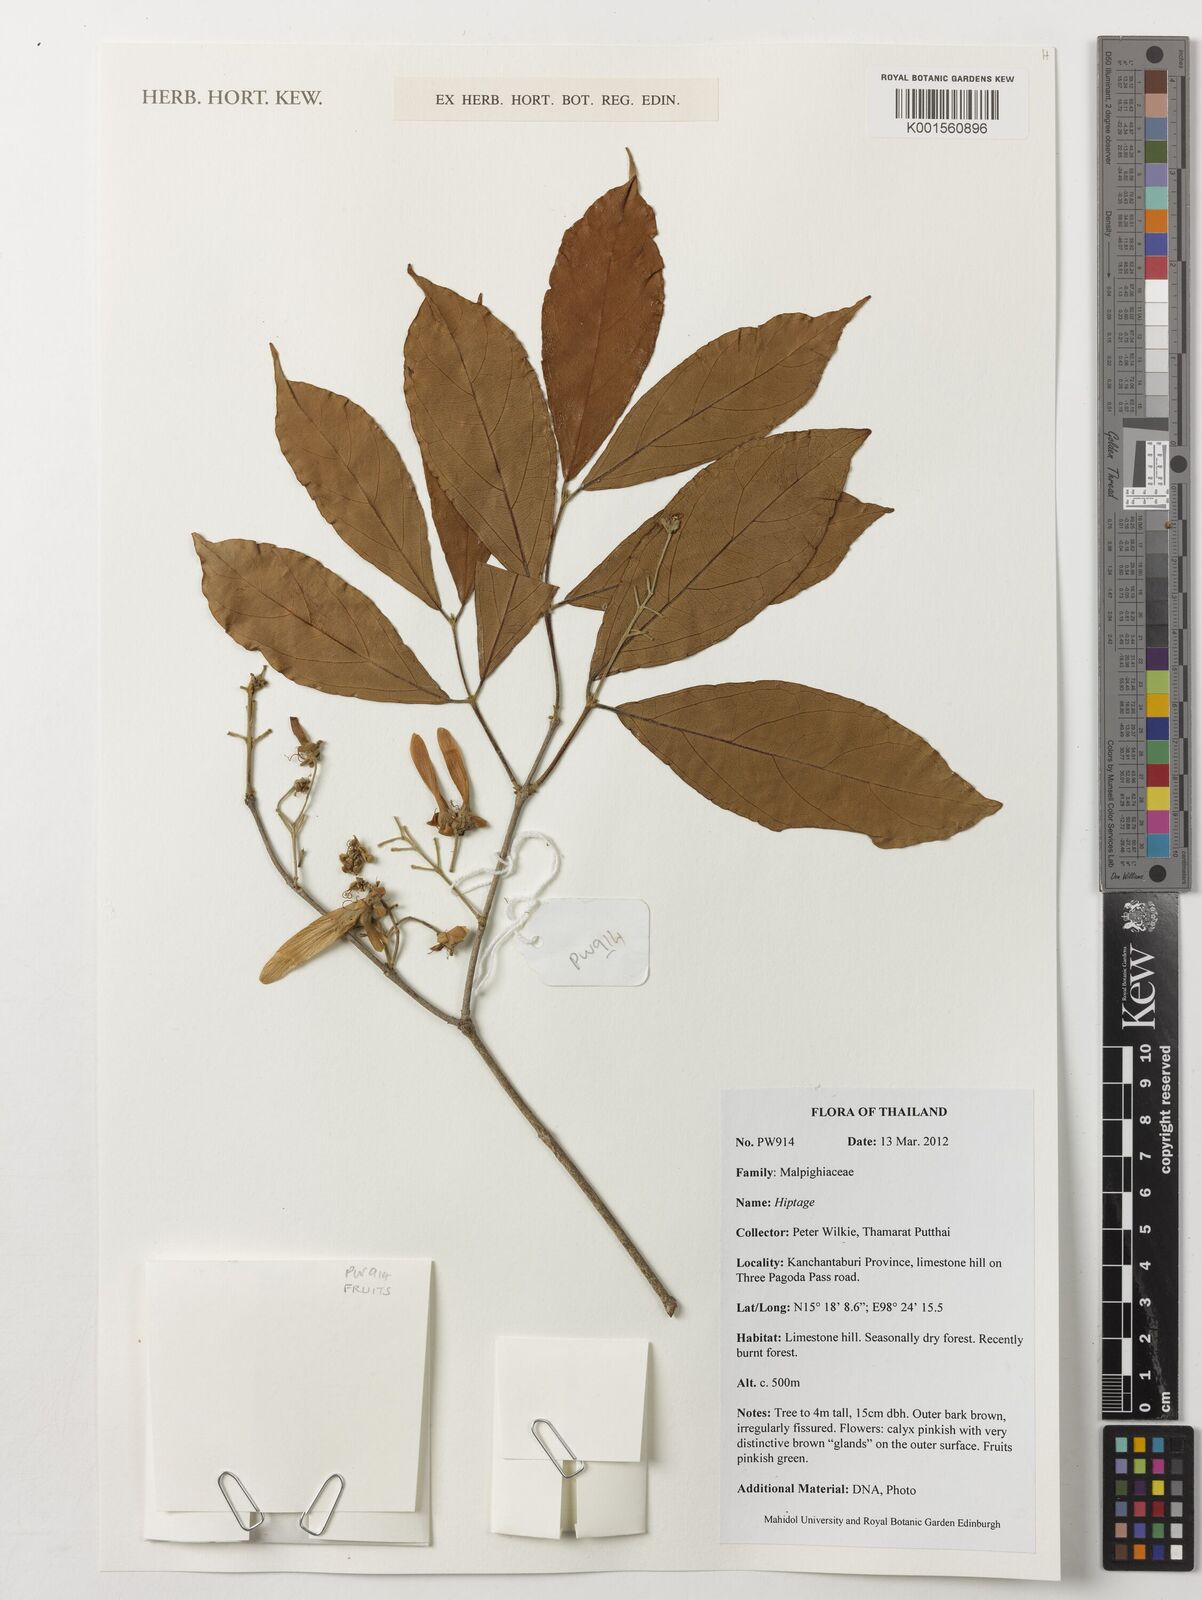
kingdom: Plantae
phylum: Tracheophyta
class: Magnoliopsida
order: Malpighiales
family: Malpighiaceae
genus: Hiptage
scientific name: Hiptage
